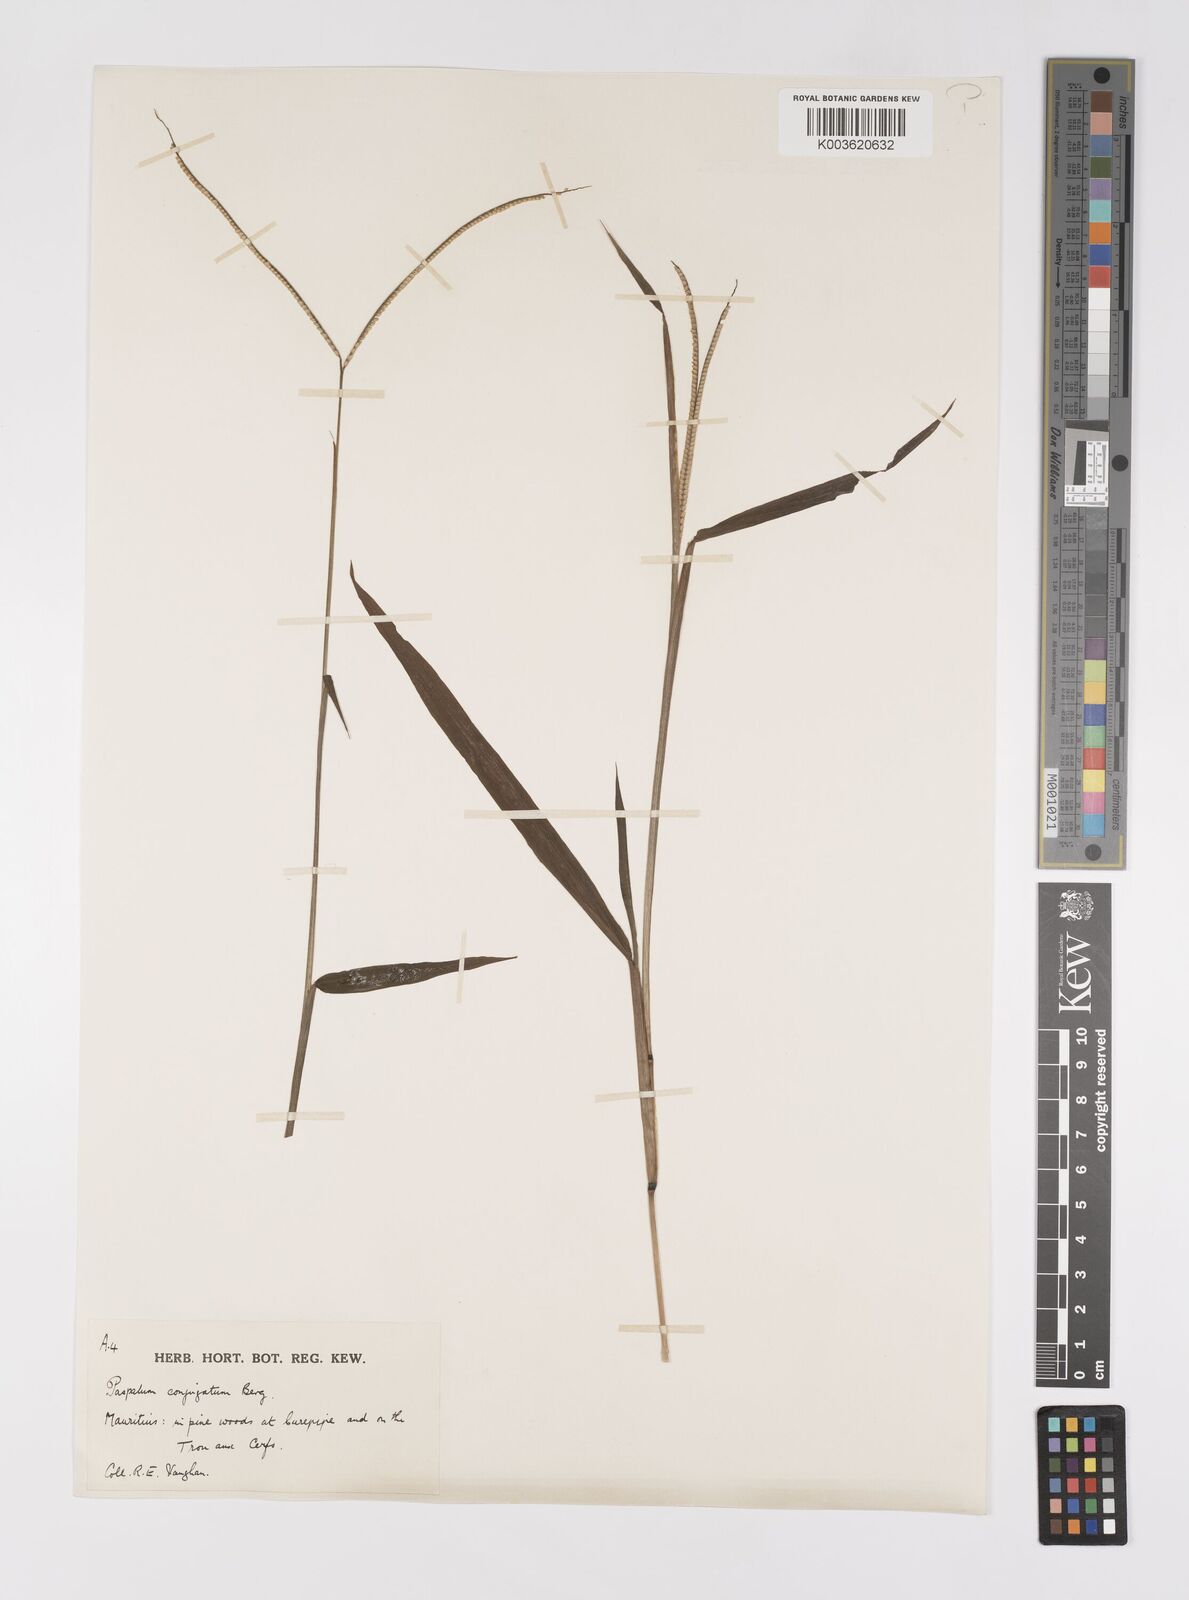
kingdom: Plantae
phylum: Tracheophyta
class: Liliopsida
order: Poales
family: Poaceae
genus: Paspalum
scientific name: Paspalum conjugatum
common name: Hilograss
